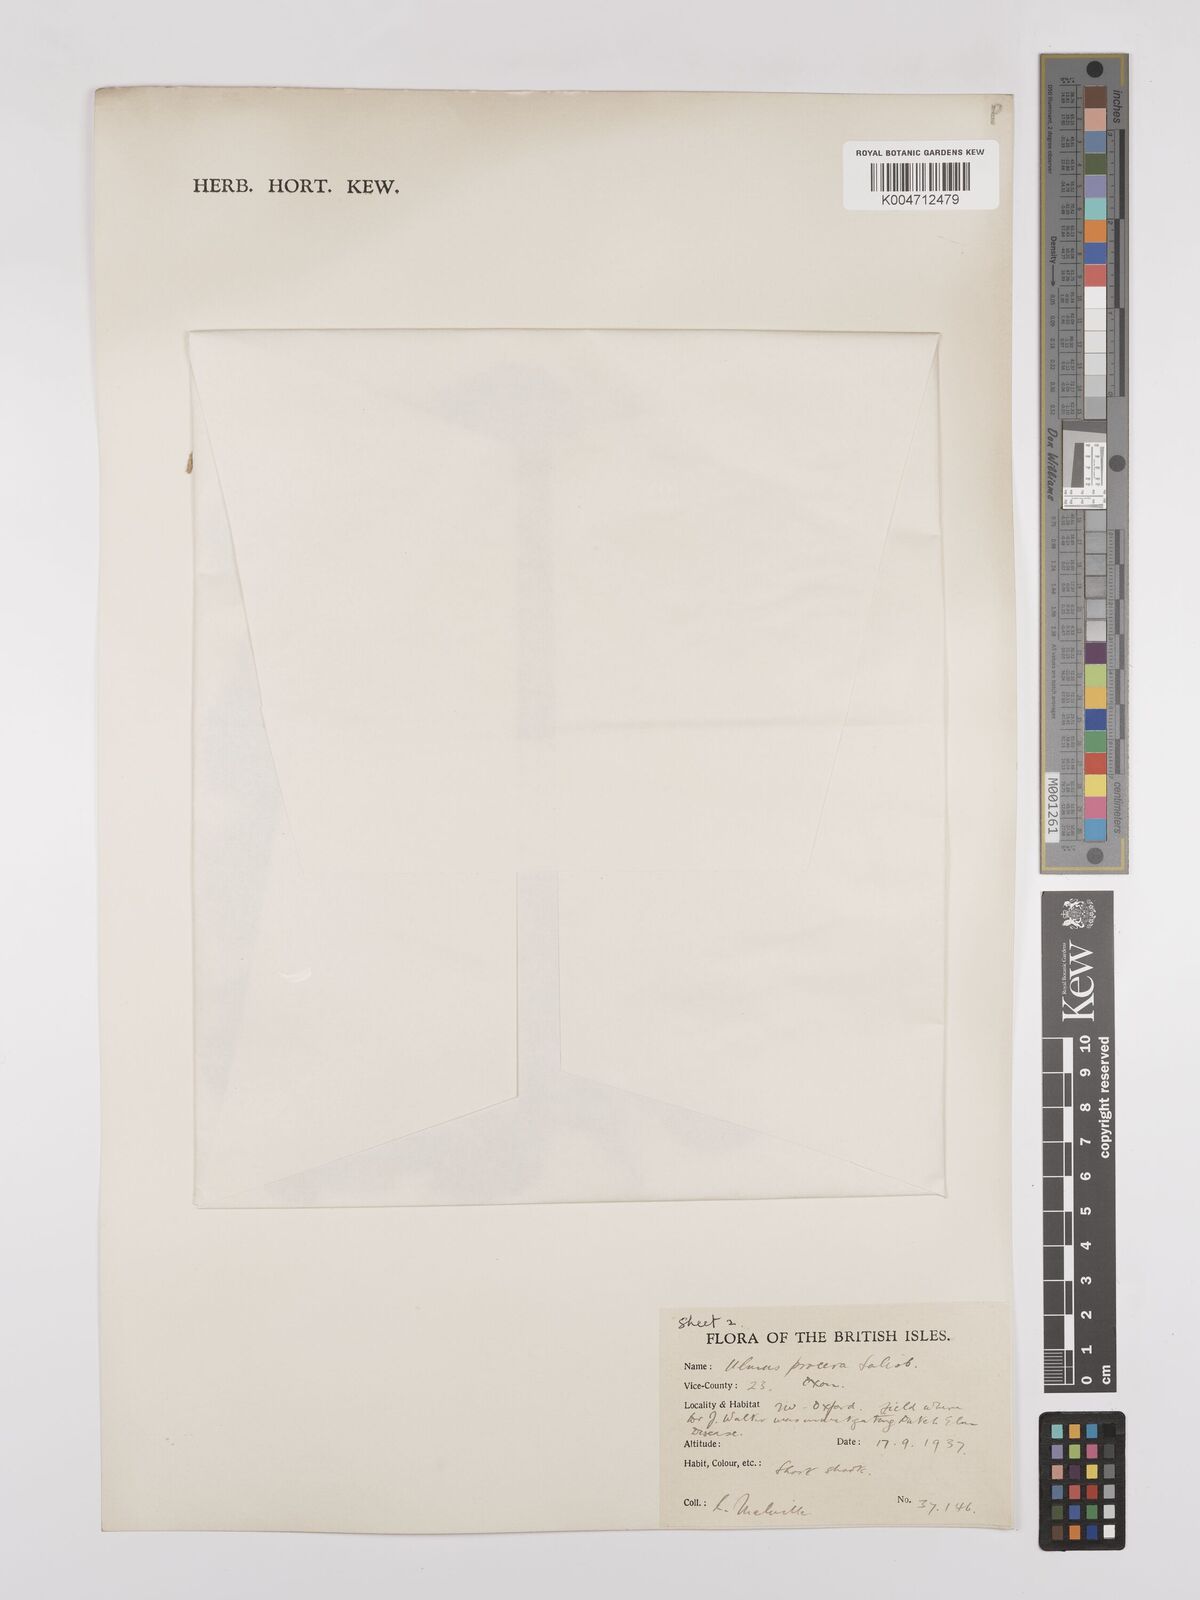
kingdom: Plantae
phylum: Tracheophyta
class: Magnoliopsida
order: Rosales
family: Ulmaceae
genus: Ulmus
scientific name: Ulmus minor
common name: Small-leaved elm
